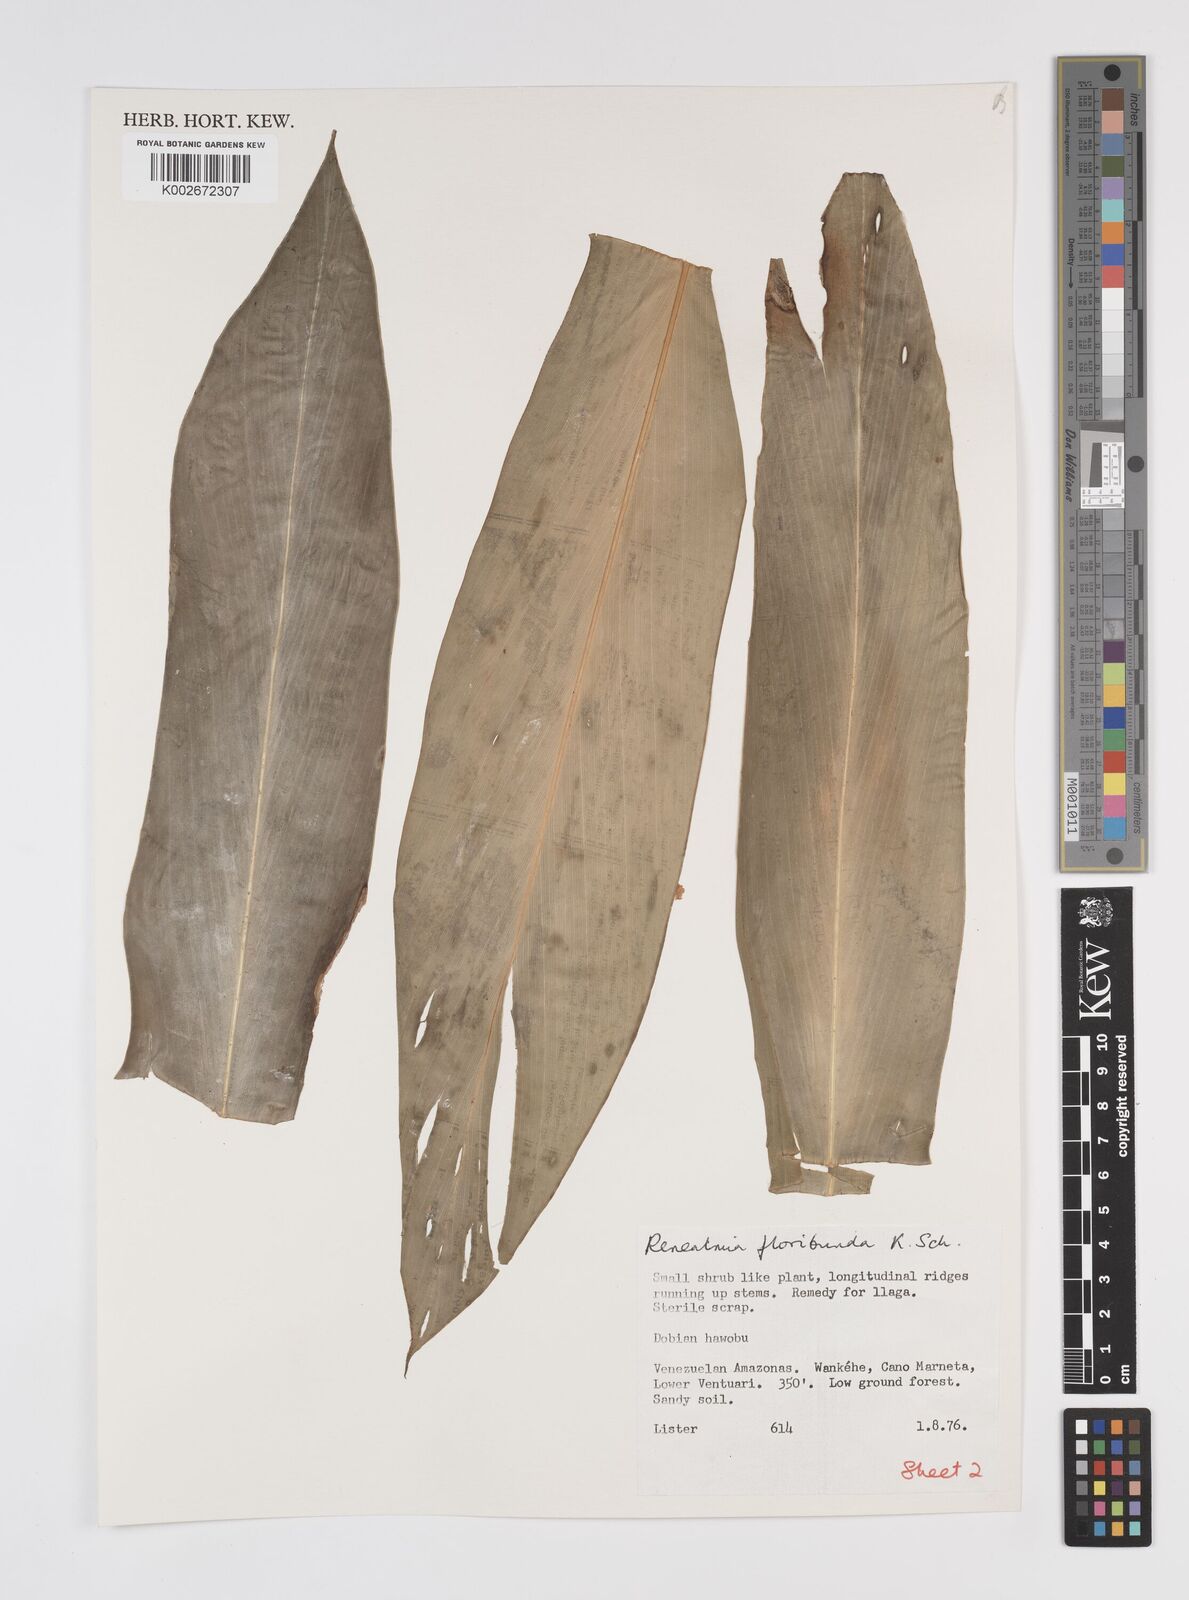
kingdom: Plantae
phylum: Tracheophyta
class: Liliopsida
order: Zingiberales
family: Zingiberaceae
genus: Renealmia
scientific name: Renealmia floribunda
